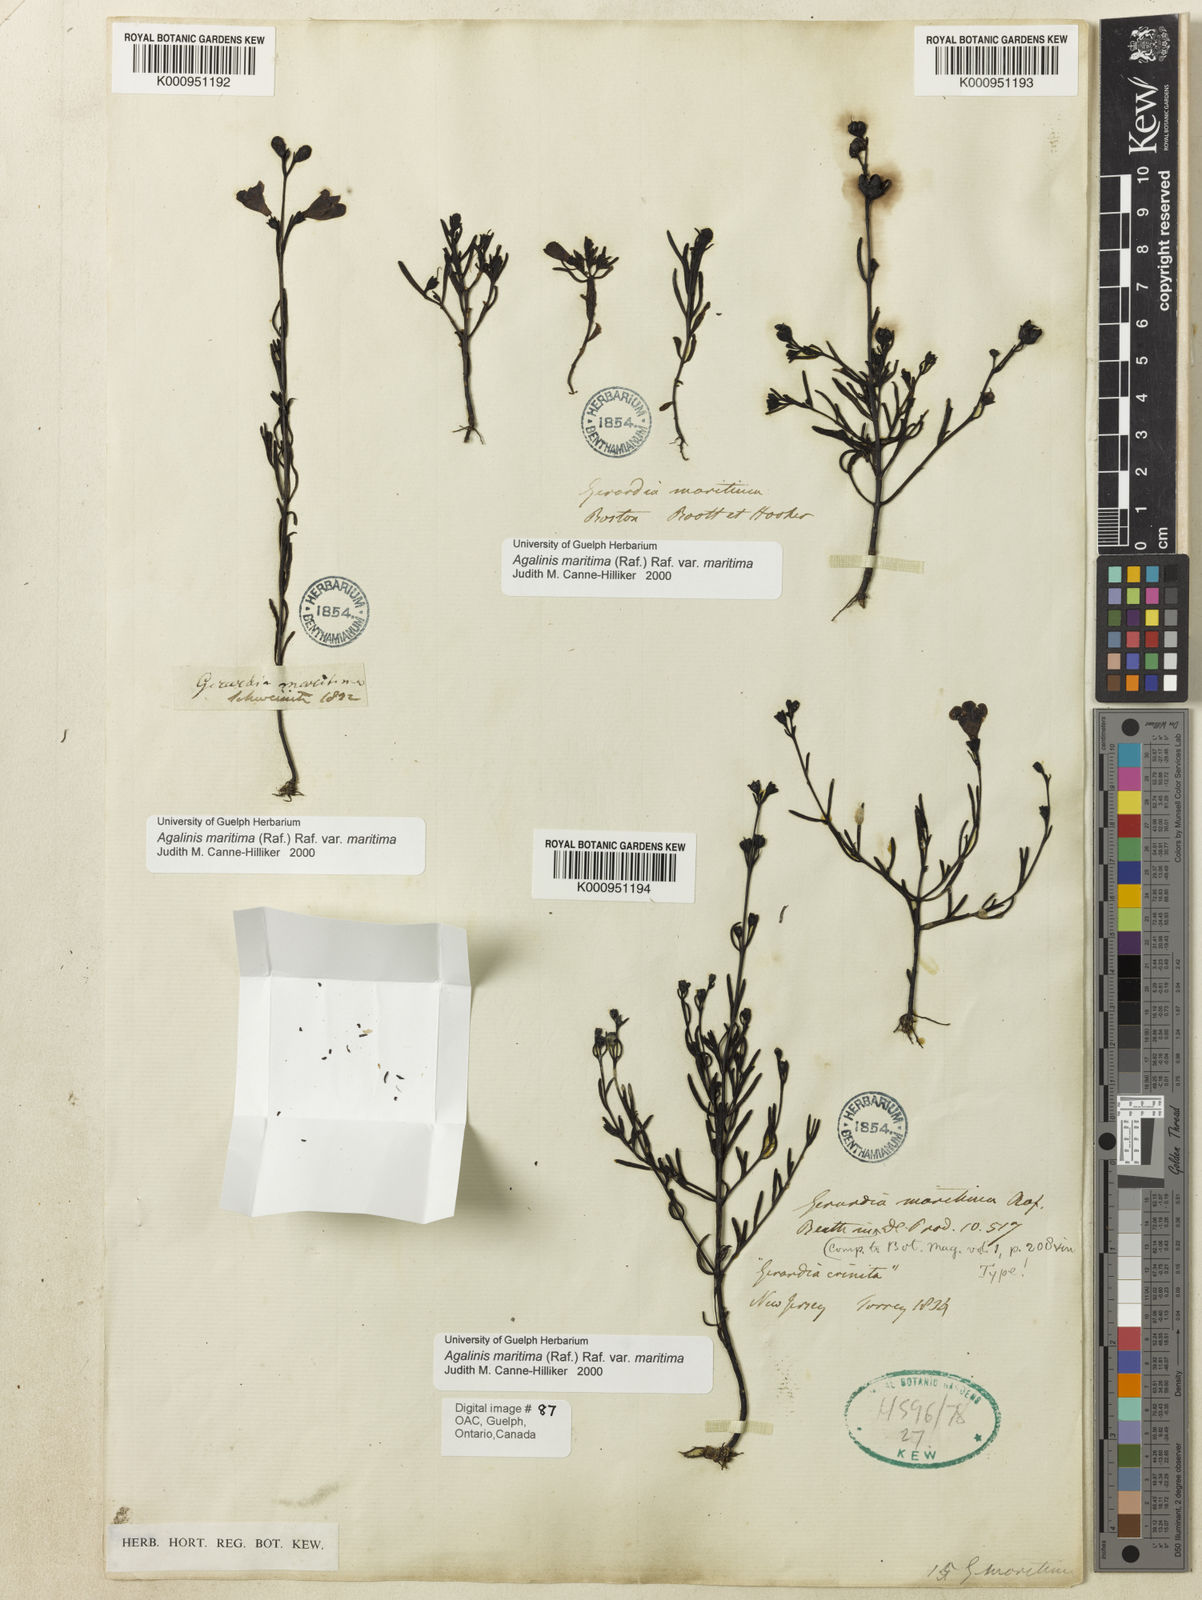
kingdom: Plantae
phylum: Tracheophyta
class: Magnoliopsida
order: Lamiales
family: Orobanchaceae
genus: Agalinis
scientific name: Agalinis maritima
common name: Saltmarsh agalinis
